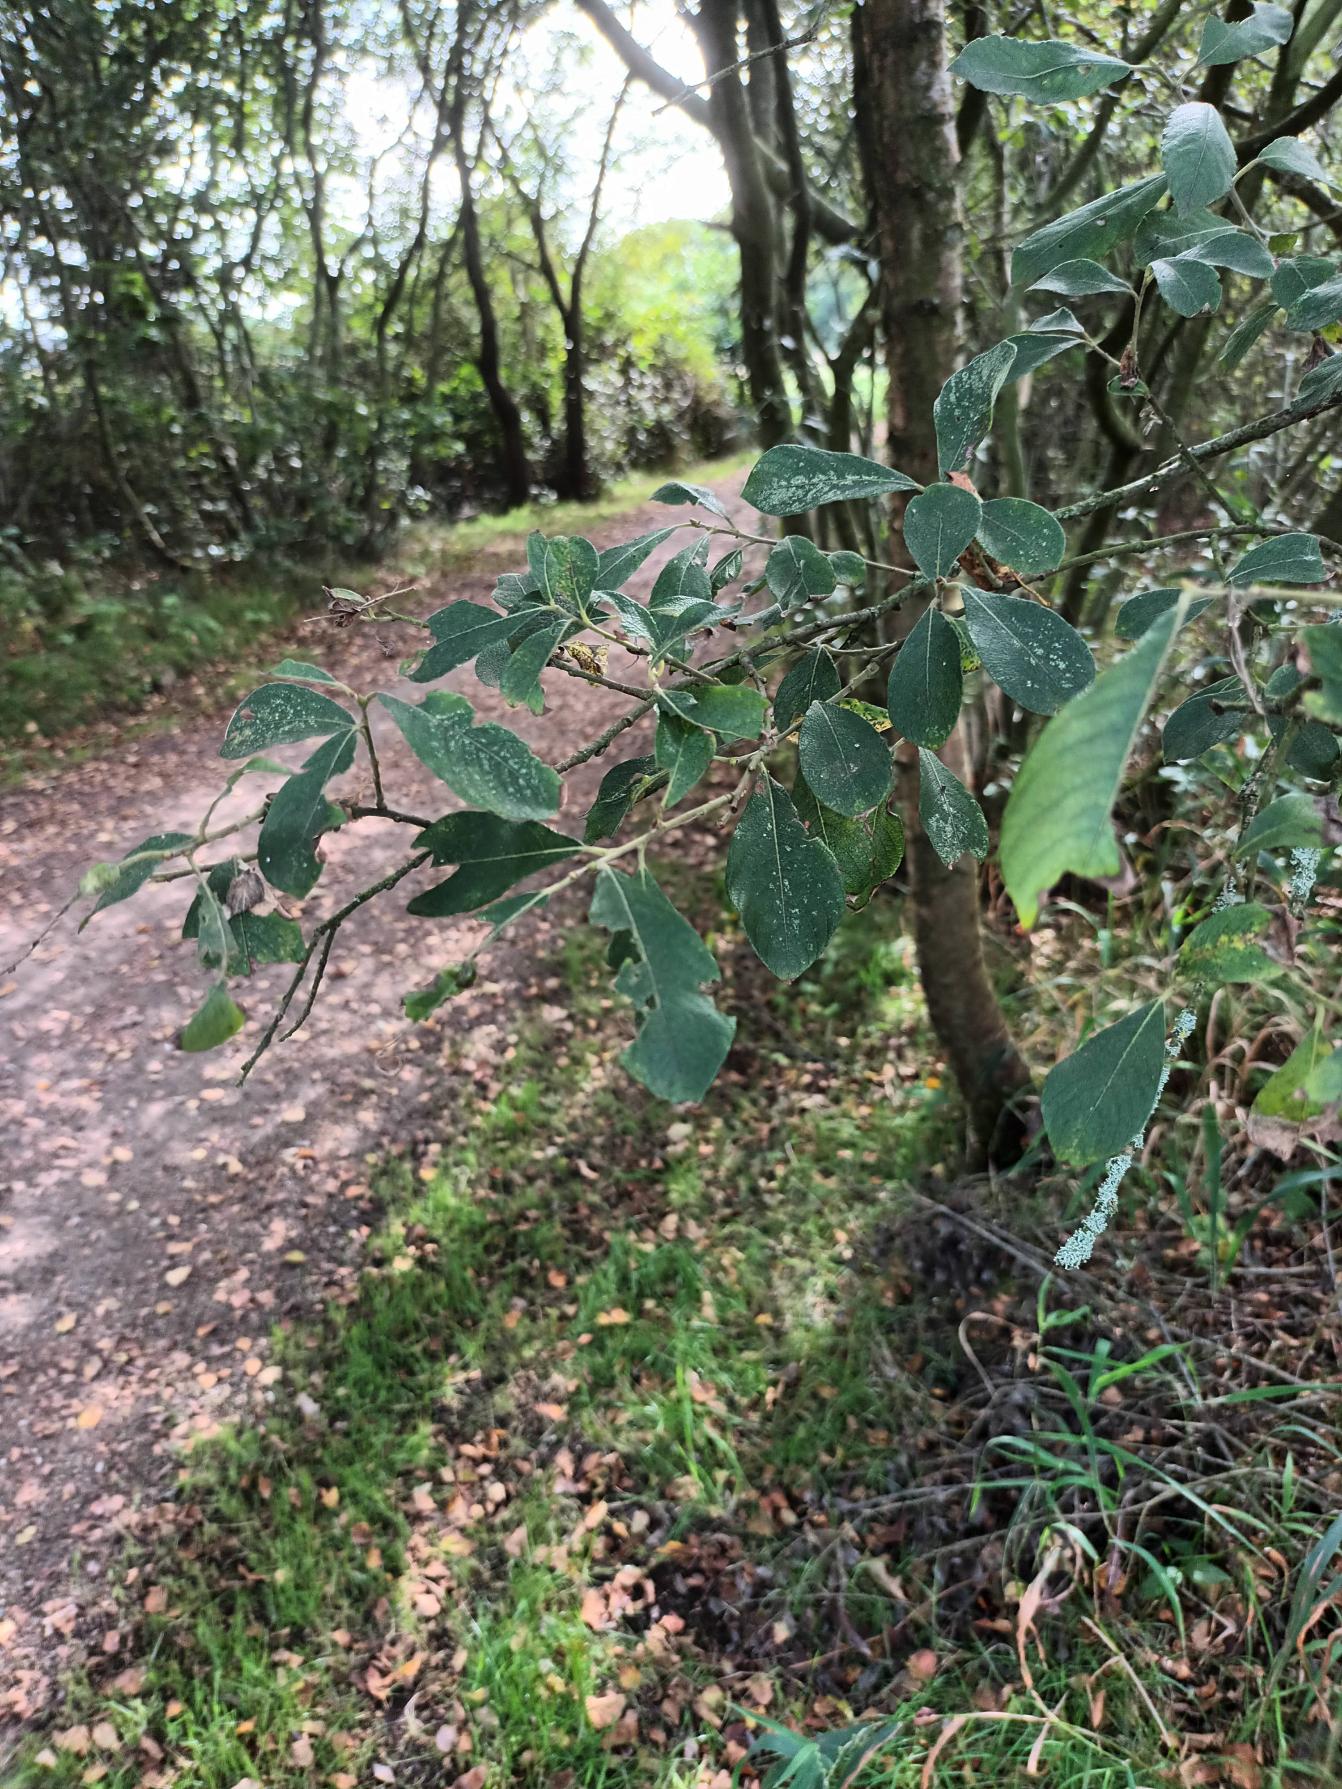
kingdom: Plantae
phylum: Tracheophyta
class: Magnoliopsida
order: Malpighiales
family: Salicaceae
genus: Salix
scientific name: Salix cinerea
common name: Grå-pil
